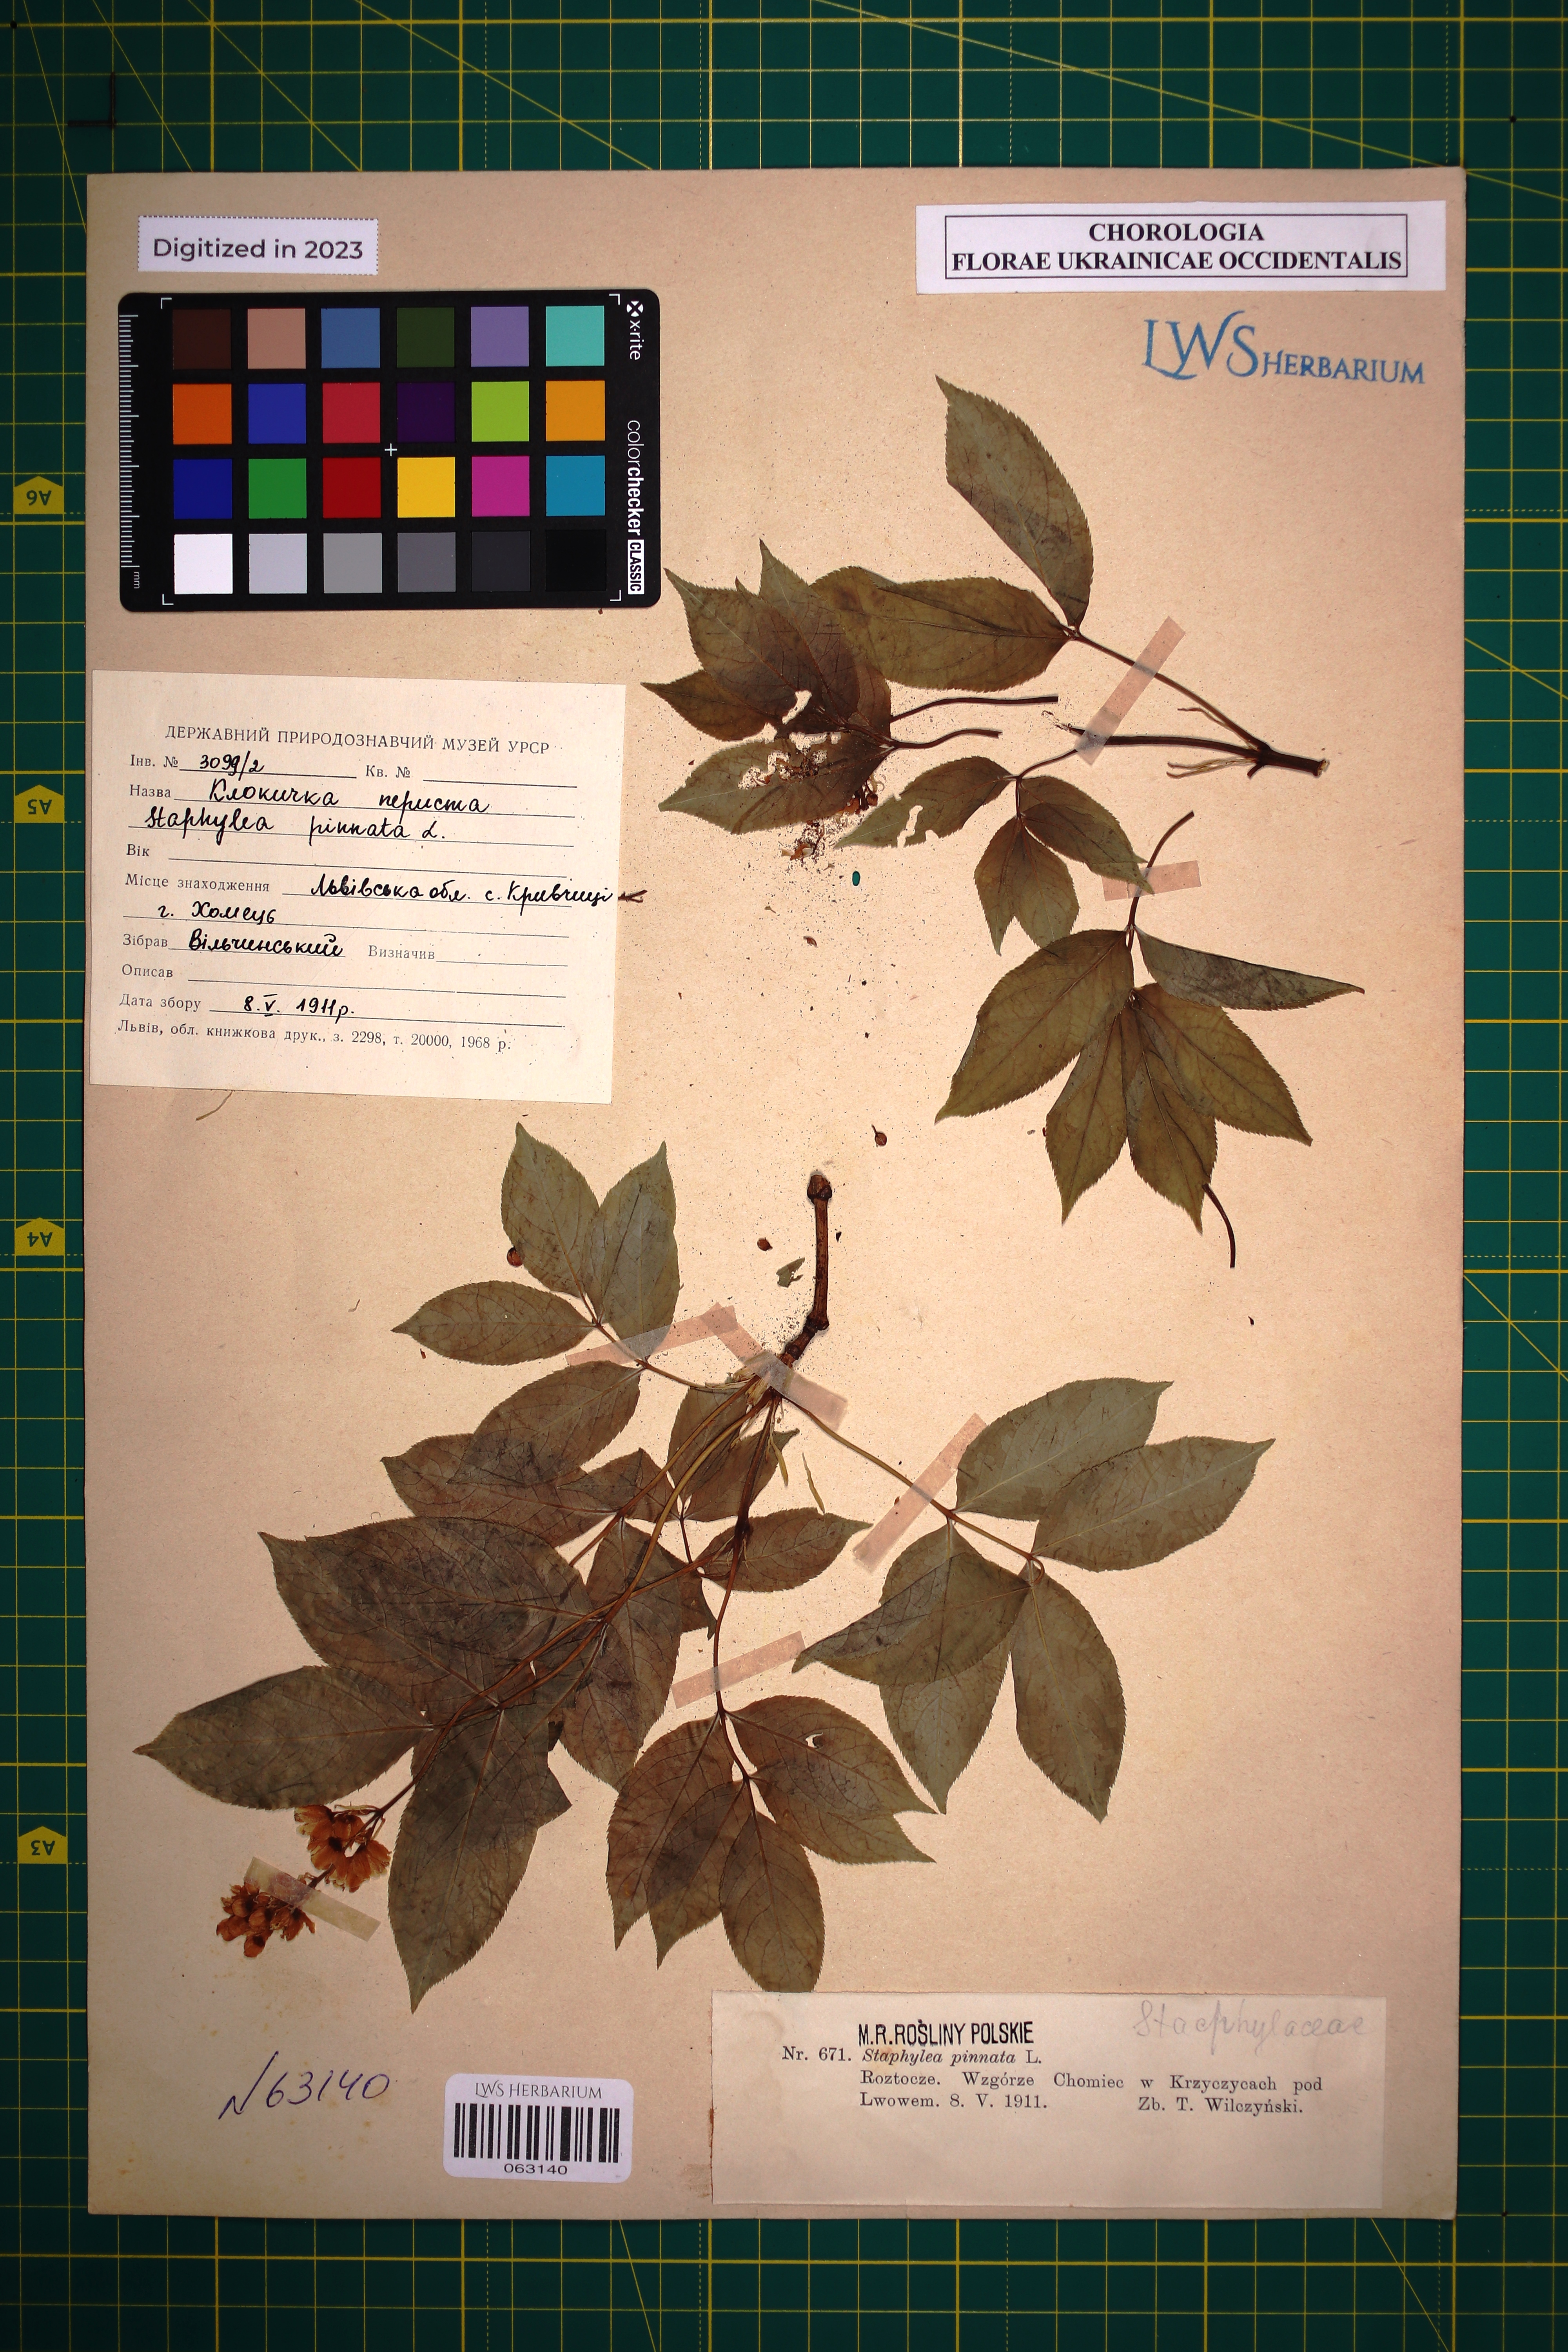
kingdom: Plantae
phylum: Tracheophyta
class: Magnoliopsida
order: Crossosomatales
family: Staphyleaceae
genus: Staphylea
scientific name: Staphylea pinnata
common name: Bladdernut
